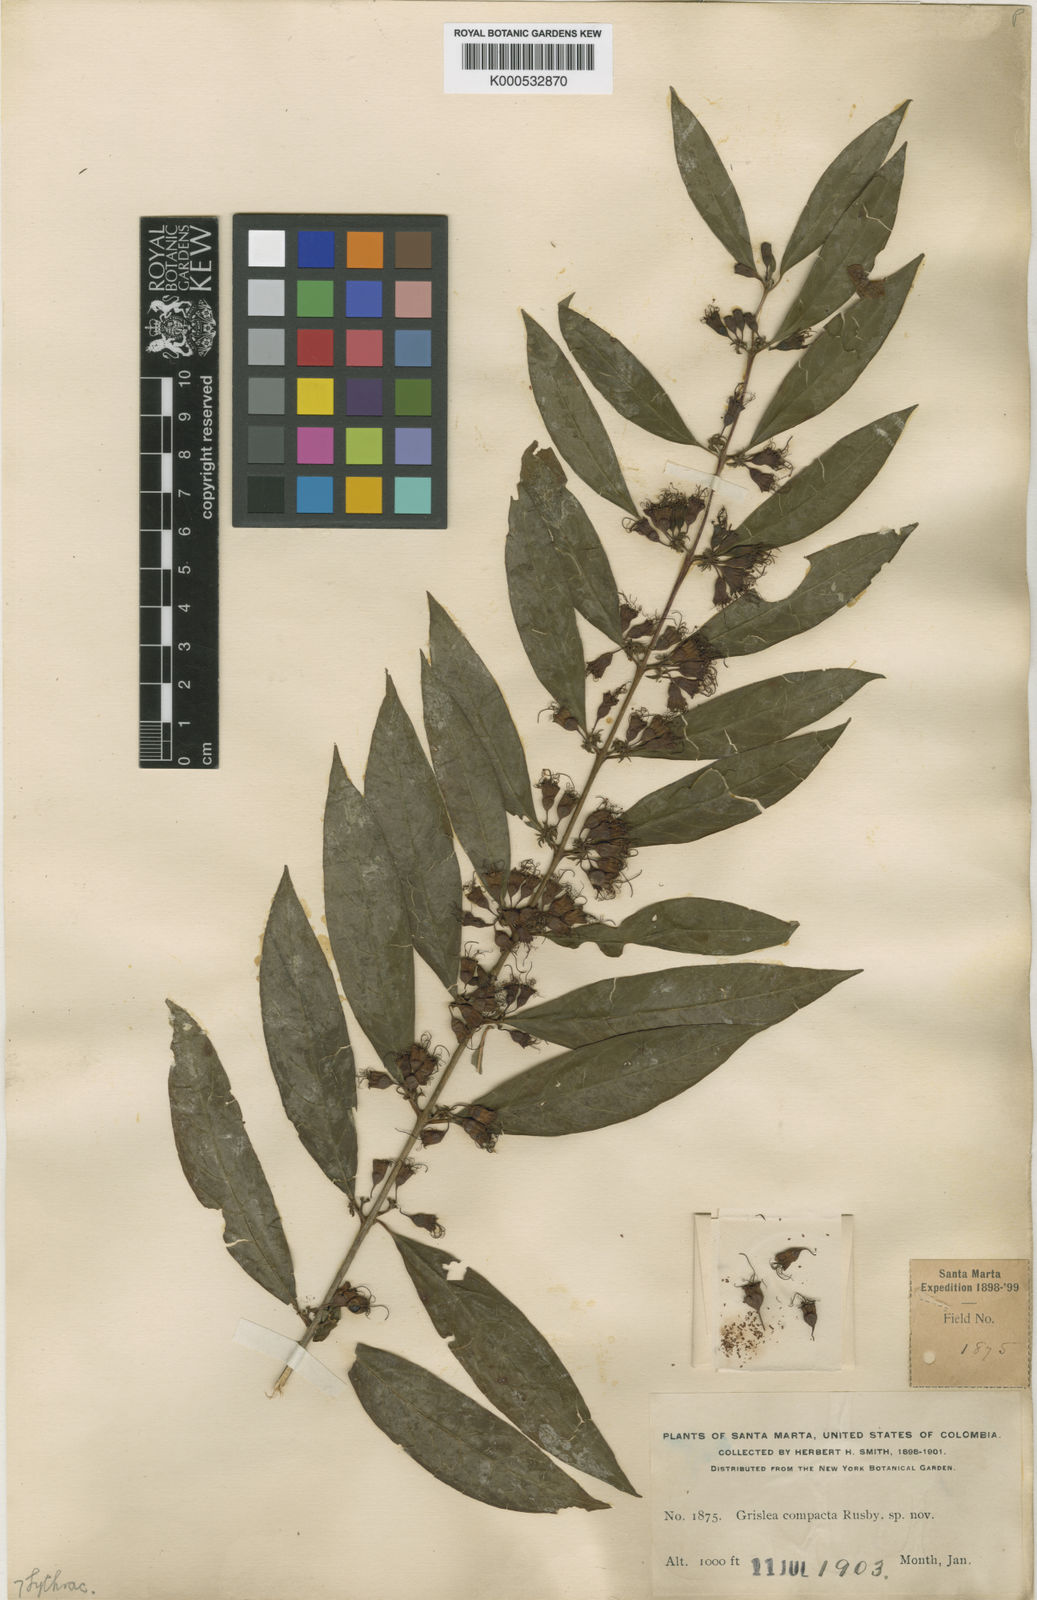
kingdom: Plantae
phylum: Tracheophyta
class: Magnoliopsida
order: Myrtales
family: Lythraceae
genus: Pehria
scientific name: Pehria compacta
